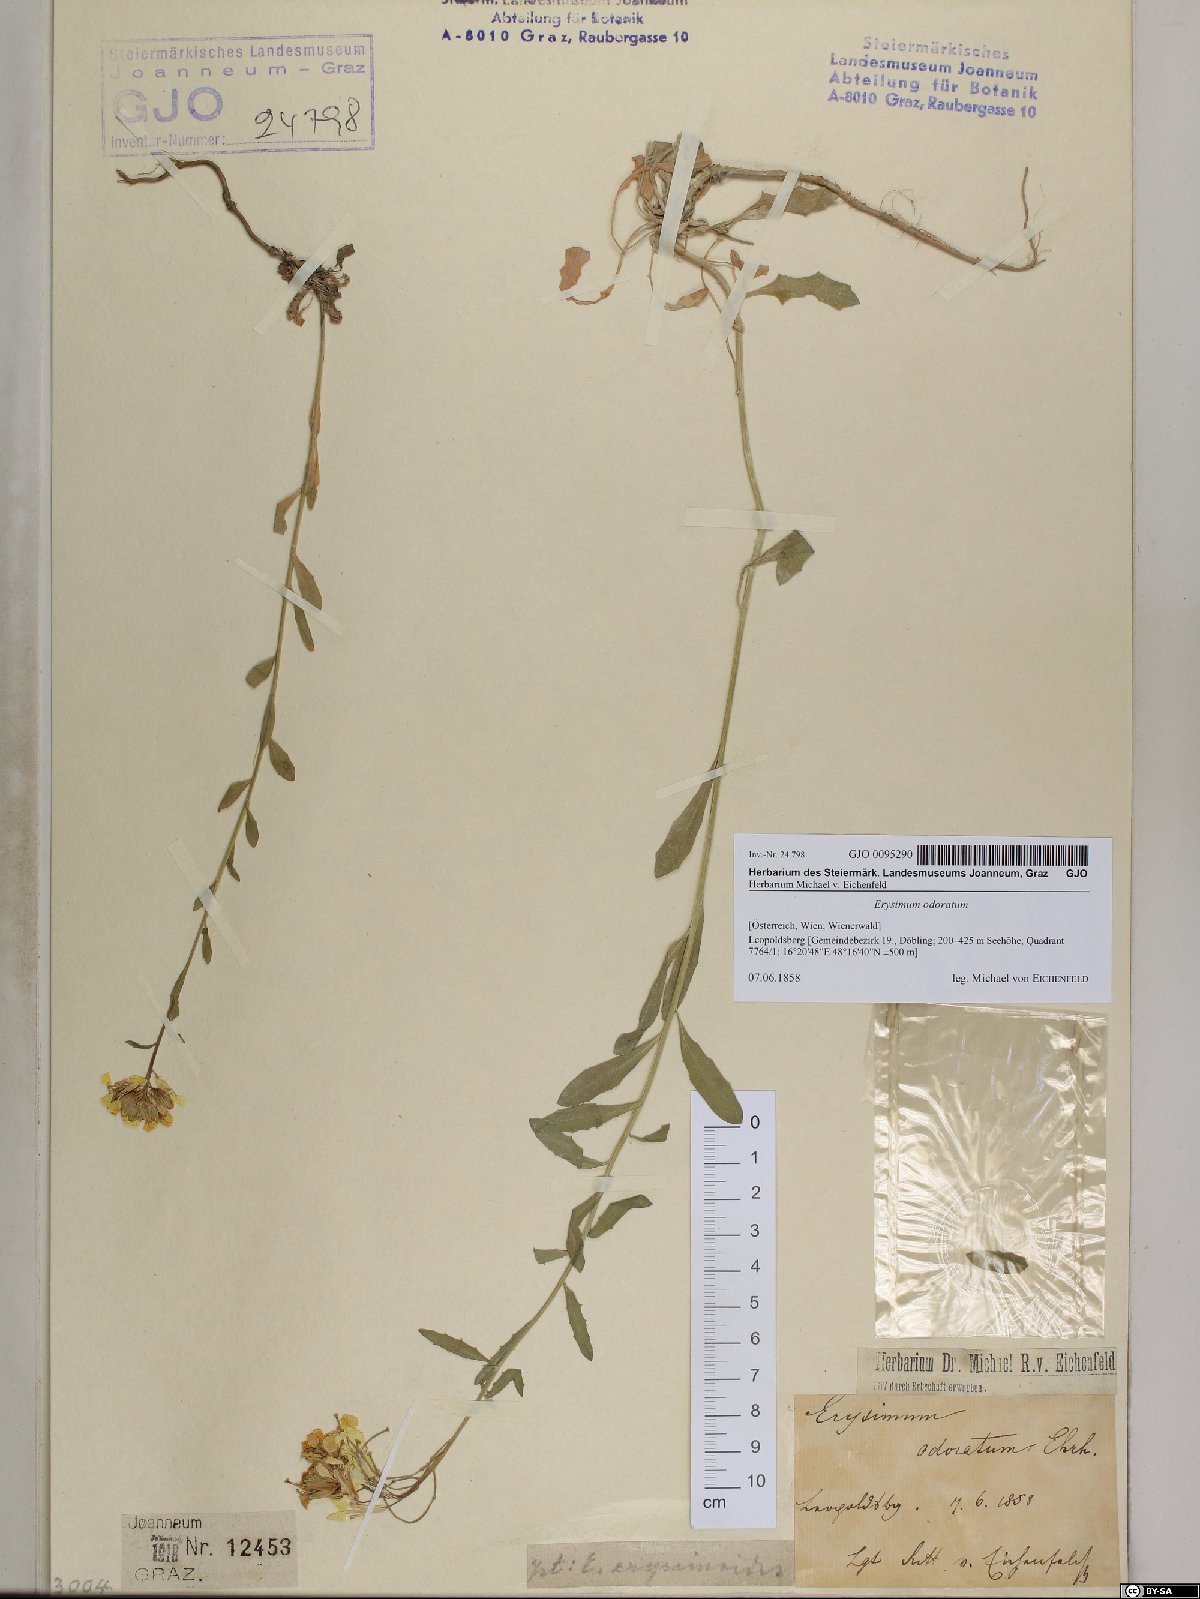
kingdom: Plantae
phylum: Tracheophyta
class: Magnoliopsida
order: Brassicales
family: Brassicaceae
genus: Erysimum
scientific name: Erysimum odoratum
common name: Smelly wallflower
